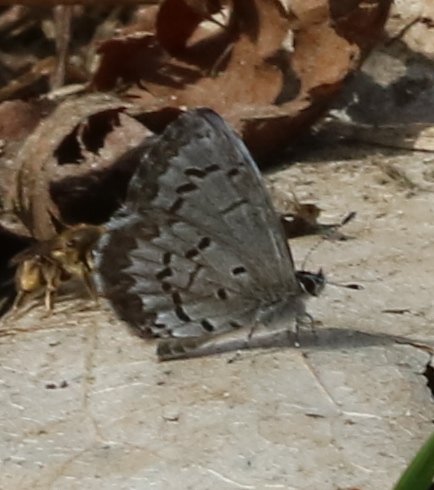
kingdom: Animalia
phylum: Arthropoda
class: Insecta
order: Lepidoptera
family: Lycaenidae
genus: Celastrina
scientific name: Celastrina lucia
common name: Northern Spring Azure
